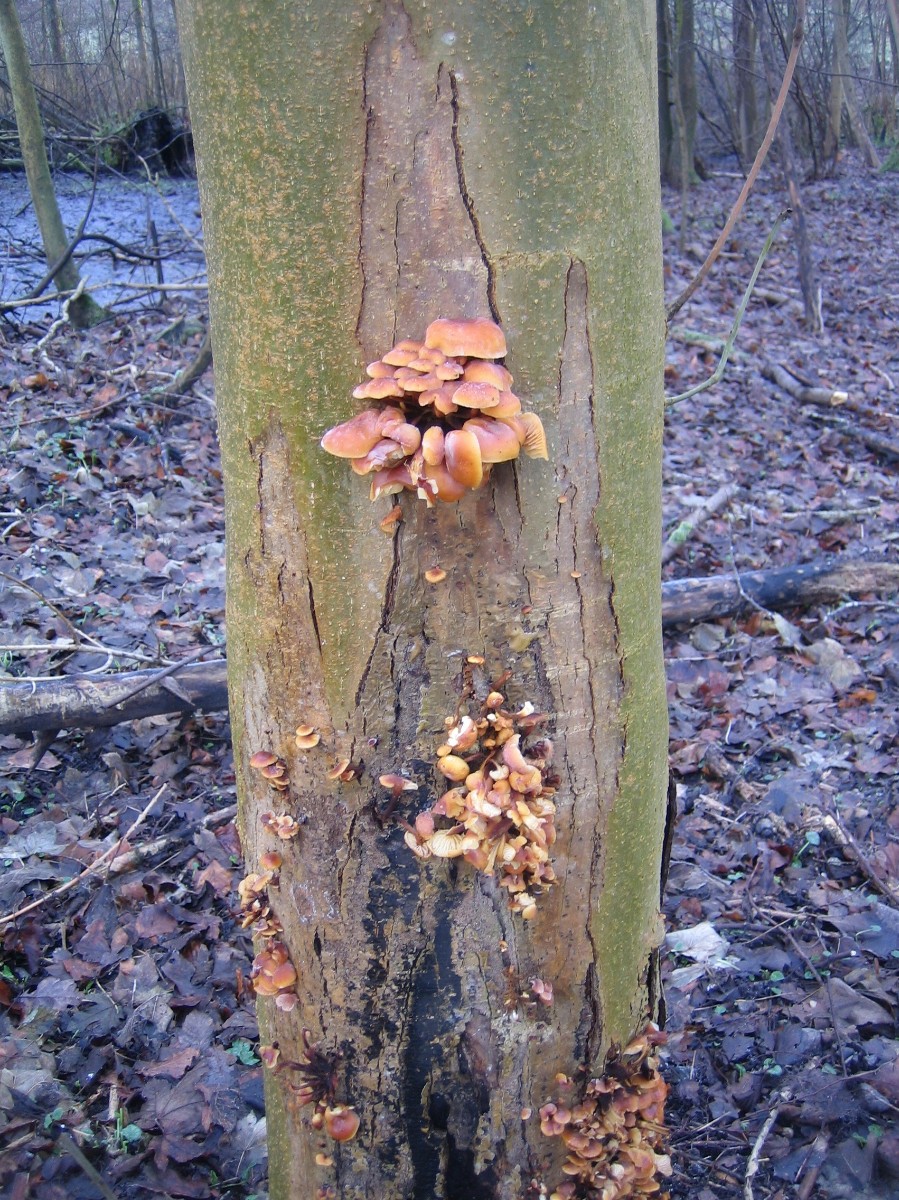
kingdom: Fungi
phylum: Basidiomycota
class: Agaricomycetes
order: Agaricales
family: Physalacriaceae
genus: Flammulina
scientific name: Flammulina velutipes
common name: gul fløjlsfod
